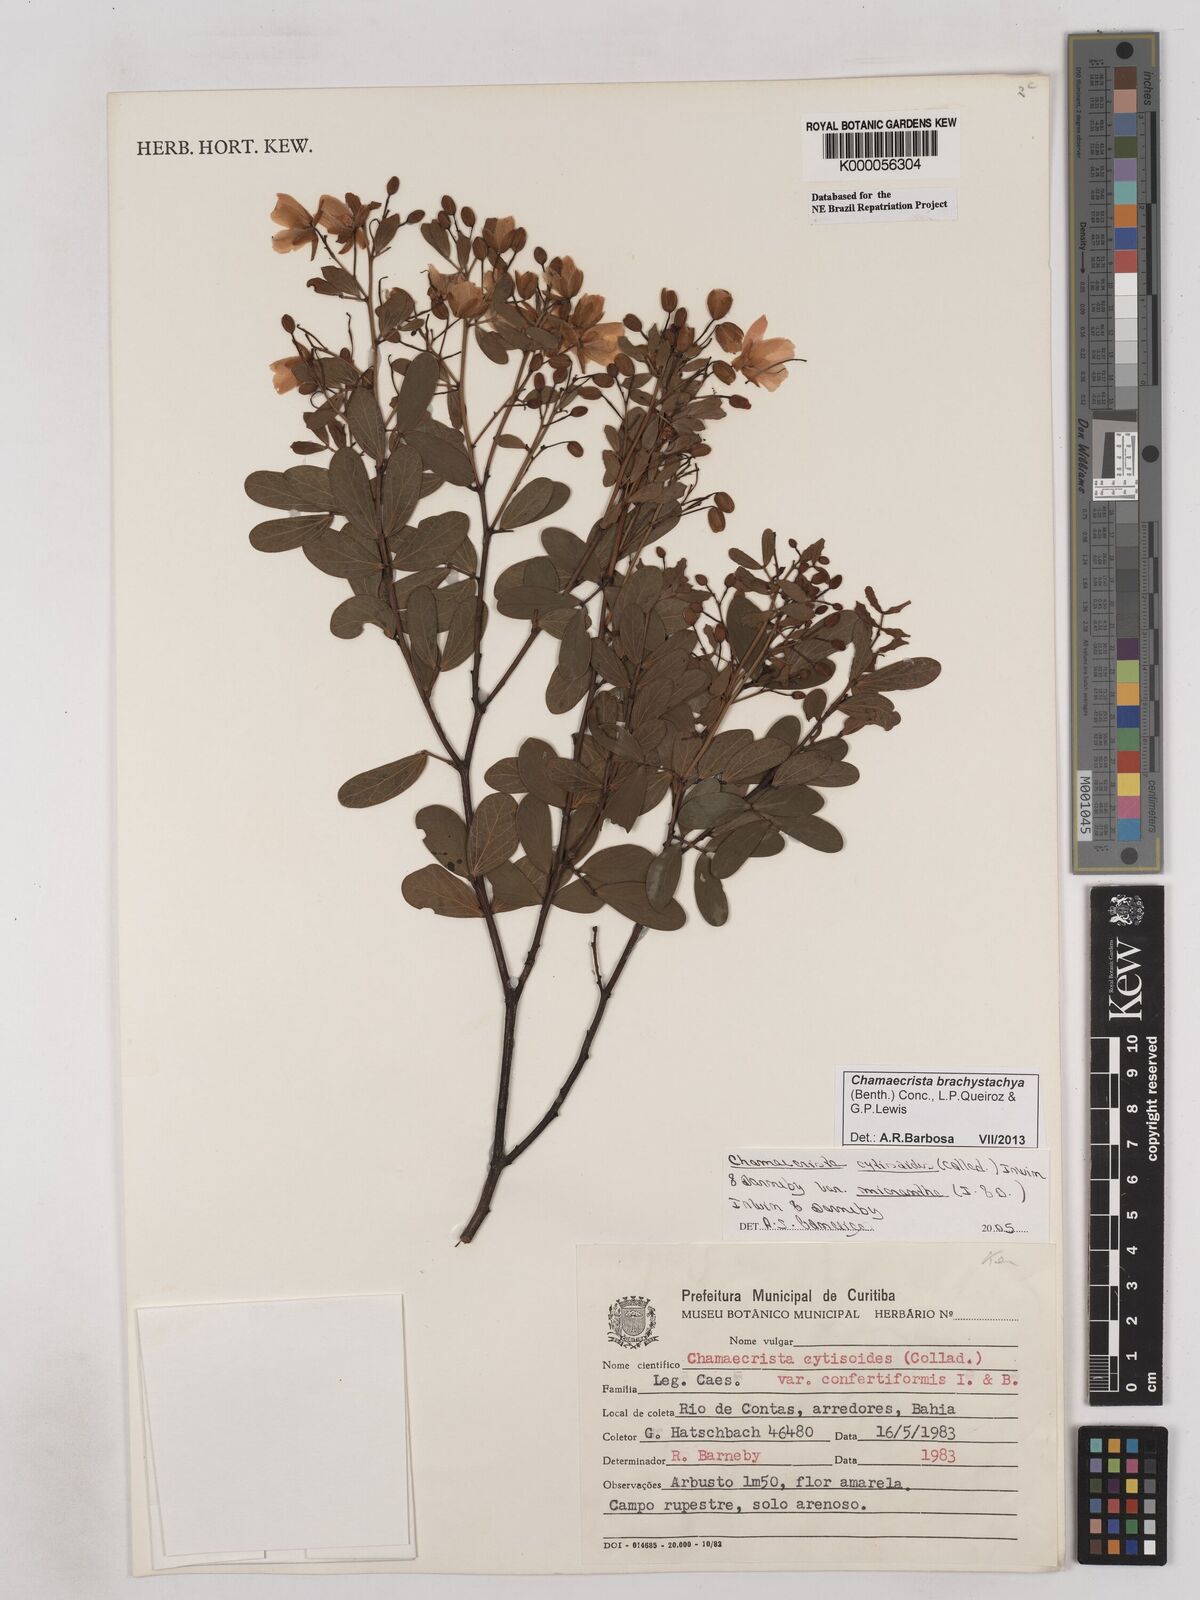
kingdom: Plantae
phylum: Tracheophyta
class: Magnoliopsida
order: Fabales
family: Fabaceae
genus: Chamaecrista
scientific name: Chamaecrista confertiformis
